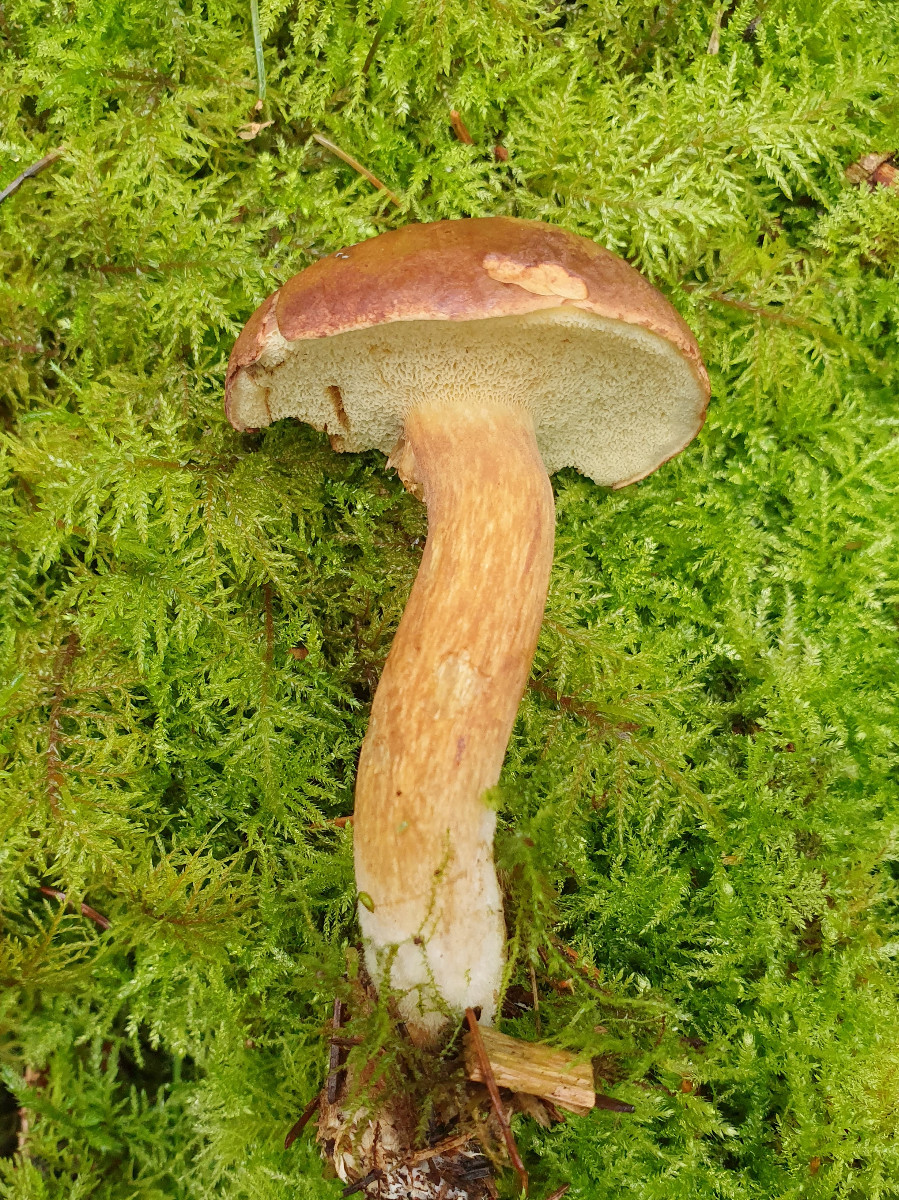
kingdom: Fungi
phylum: Basidiomycota
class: Agaricomycetes
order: Boletales
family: Boletaceae
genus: Imleria
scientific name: Imleria badia
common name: brunstokket rørhat
